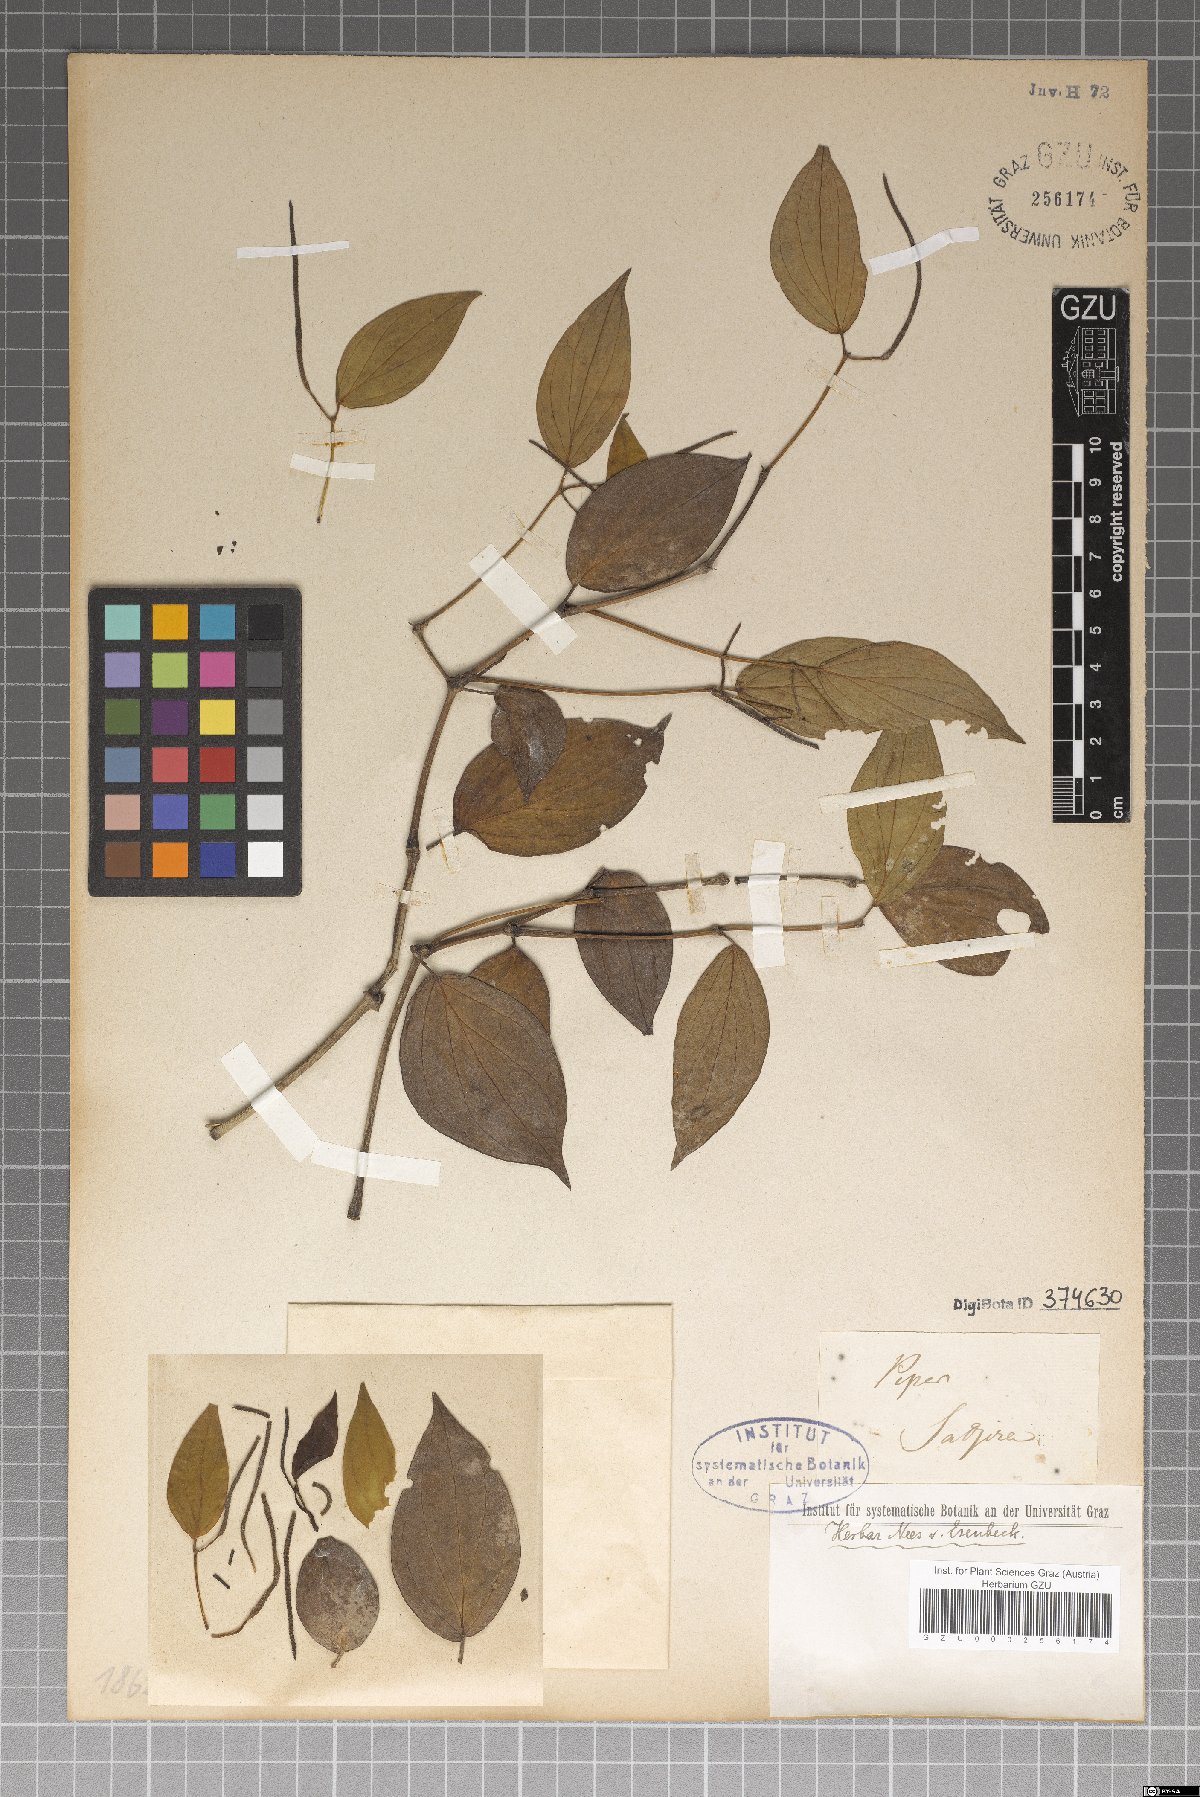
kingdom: Plantae
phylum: Tracheophyta
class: Magnoliopsida
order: Piperales
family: Piperaceae
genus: Piper
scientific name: Piper
